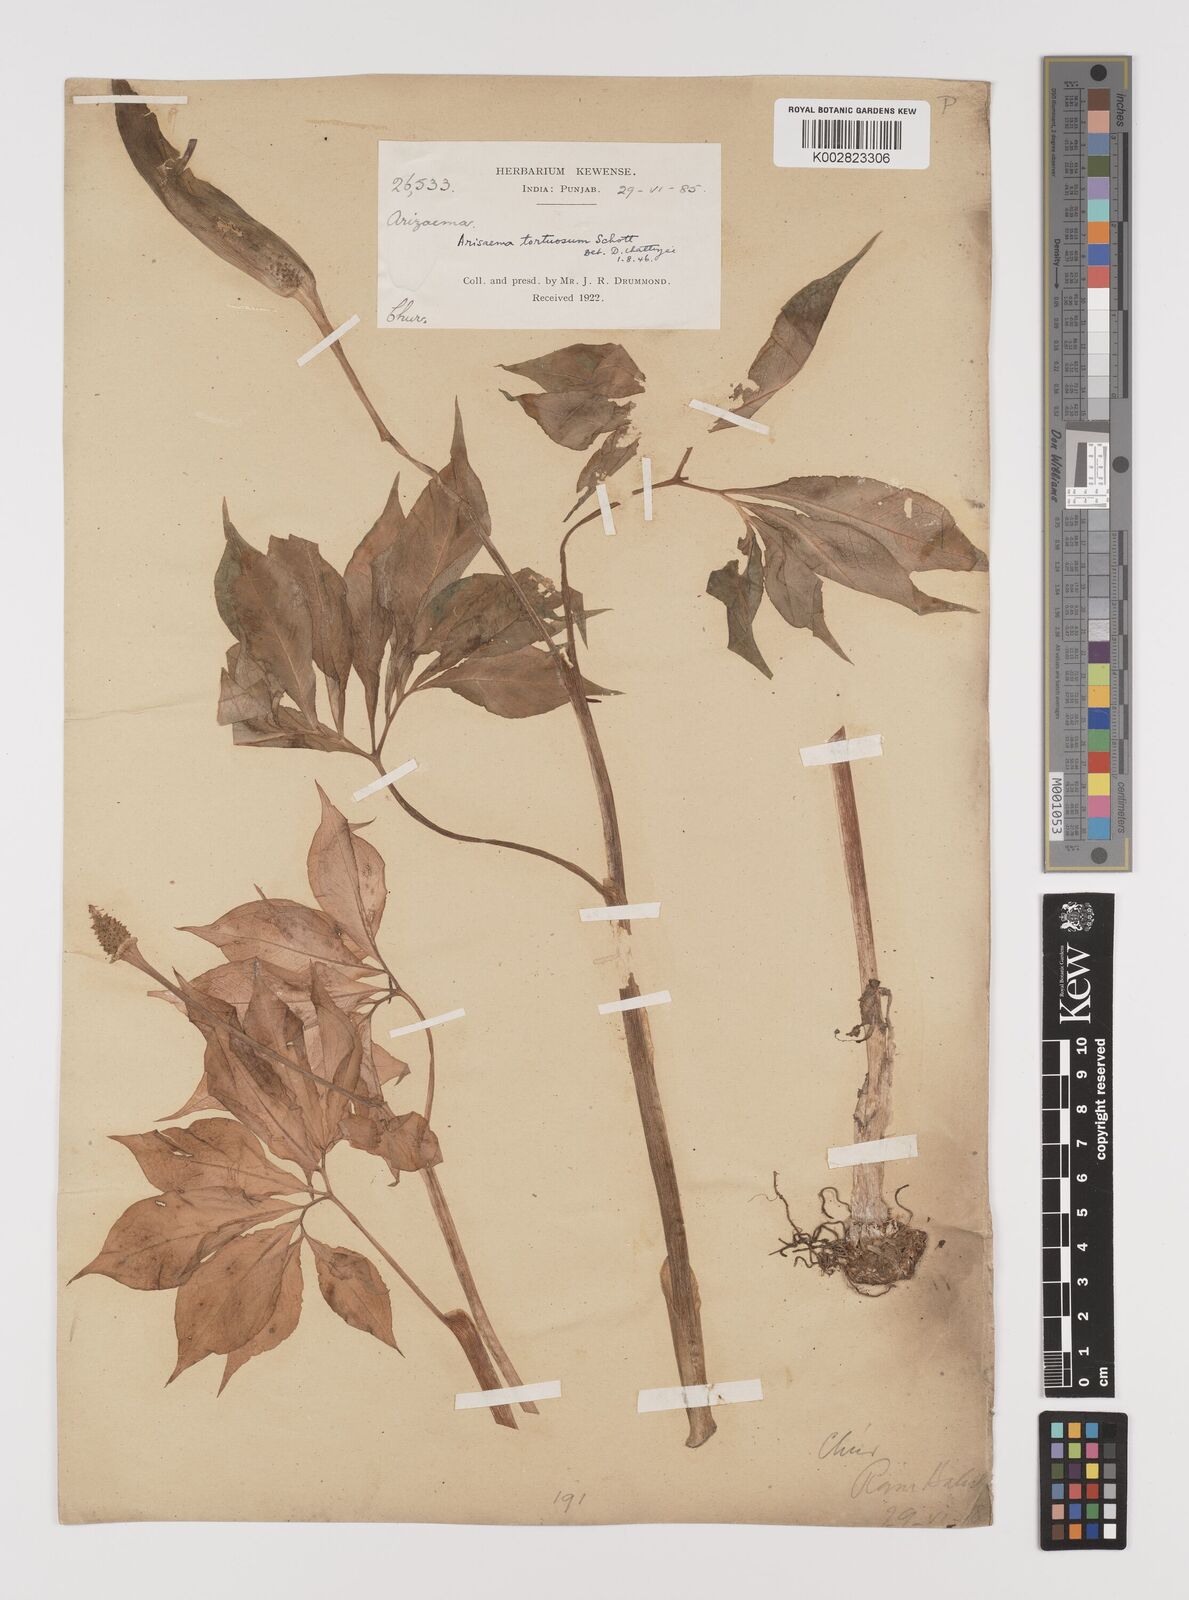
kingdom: Plantae
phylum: Tracheophyta
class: Liliopsida
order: Alismatales
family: Araceae
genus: Arisaema
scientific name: Arisaema tortuosum
